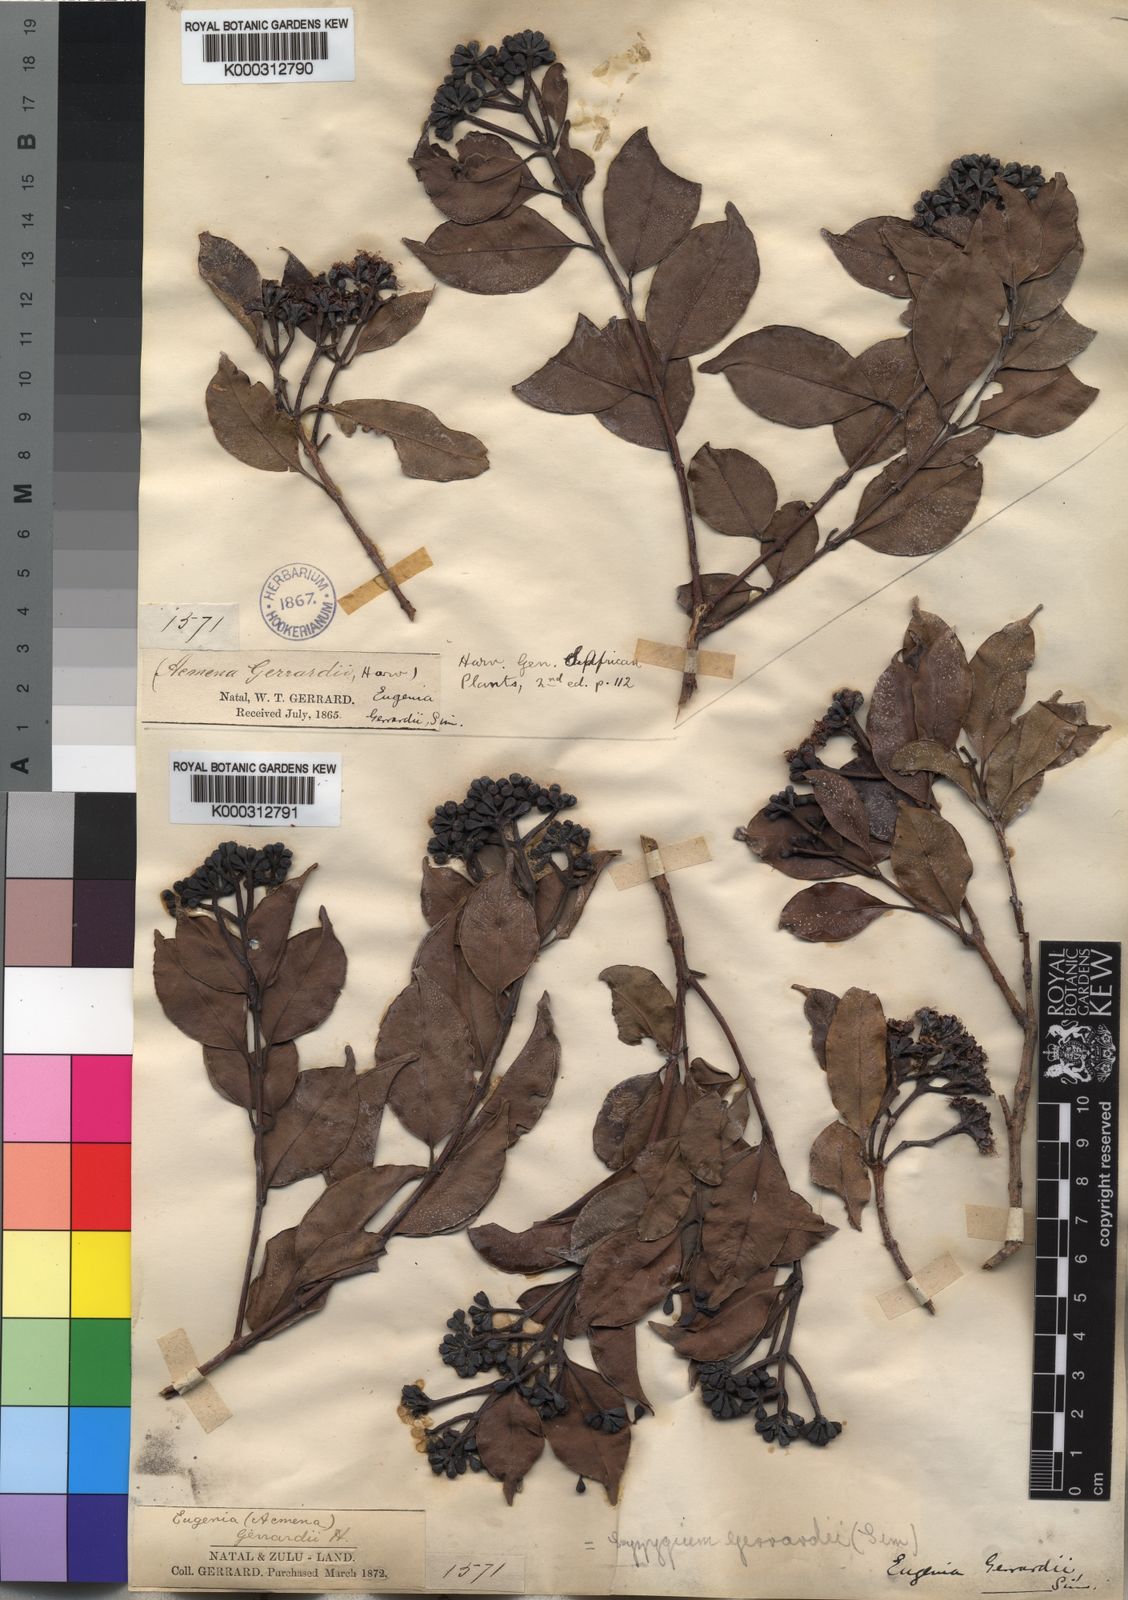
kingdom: Plantae
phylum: Tracheophyta
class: Magnoliopsida
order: Myrtales
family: Myrtaceae
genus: Syzygium
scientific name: Syzygium gerrardii
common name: Forest waterberry
